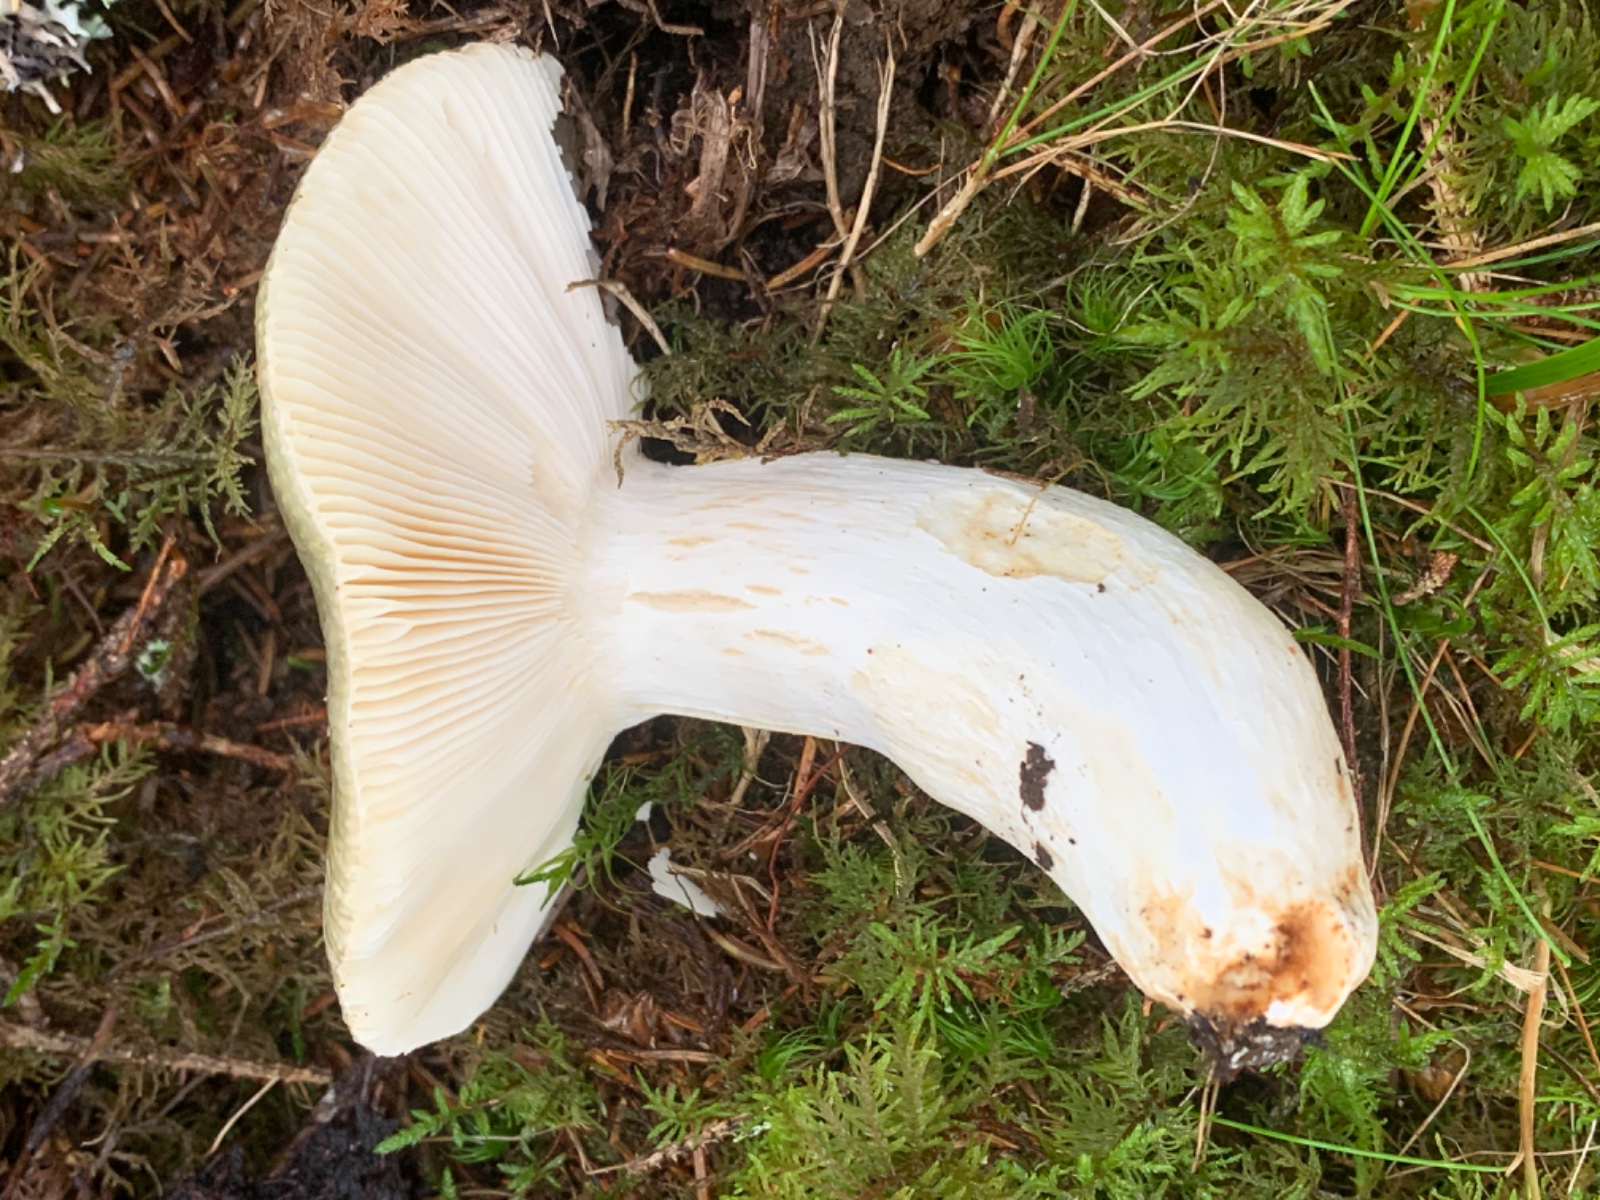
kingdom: Fungi
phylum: Basidiomycota
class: Agaricomycetes
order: Russulales
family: Russulaceae
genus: Russula
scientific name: Russula aeruginea
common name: græsgrøn skørhat
